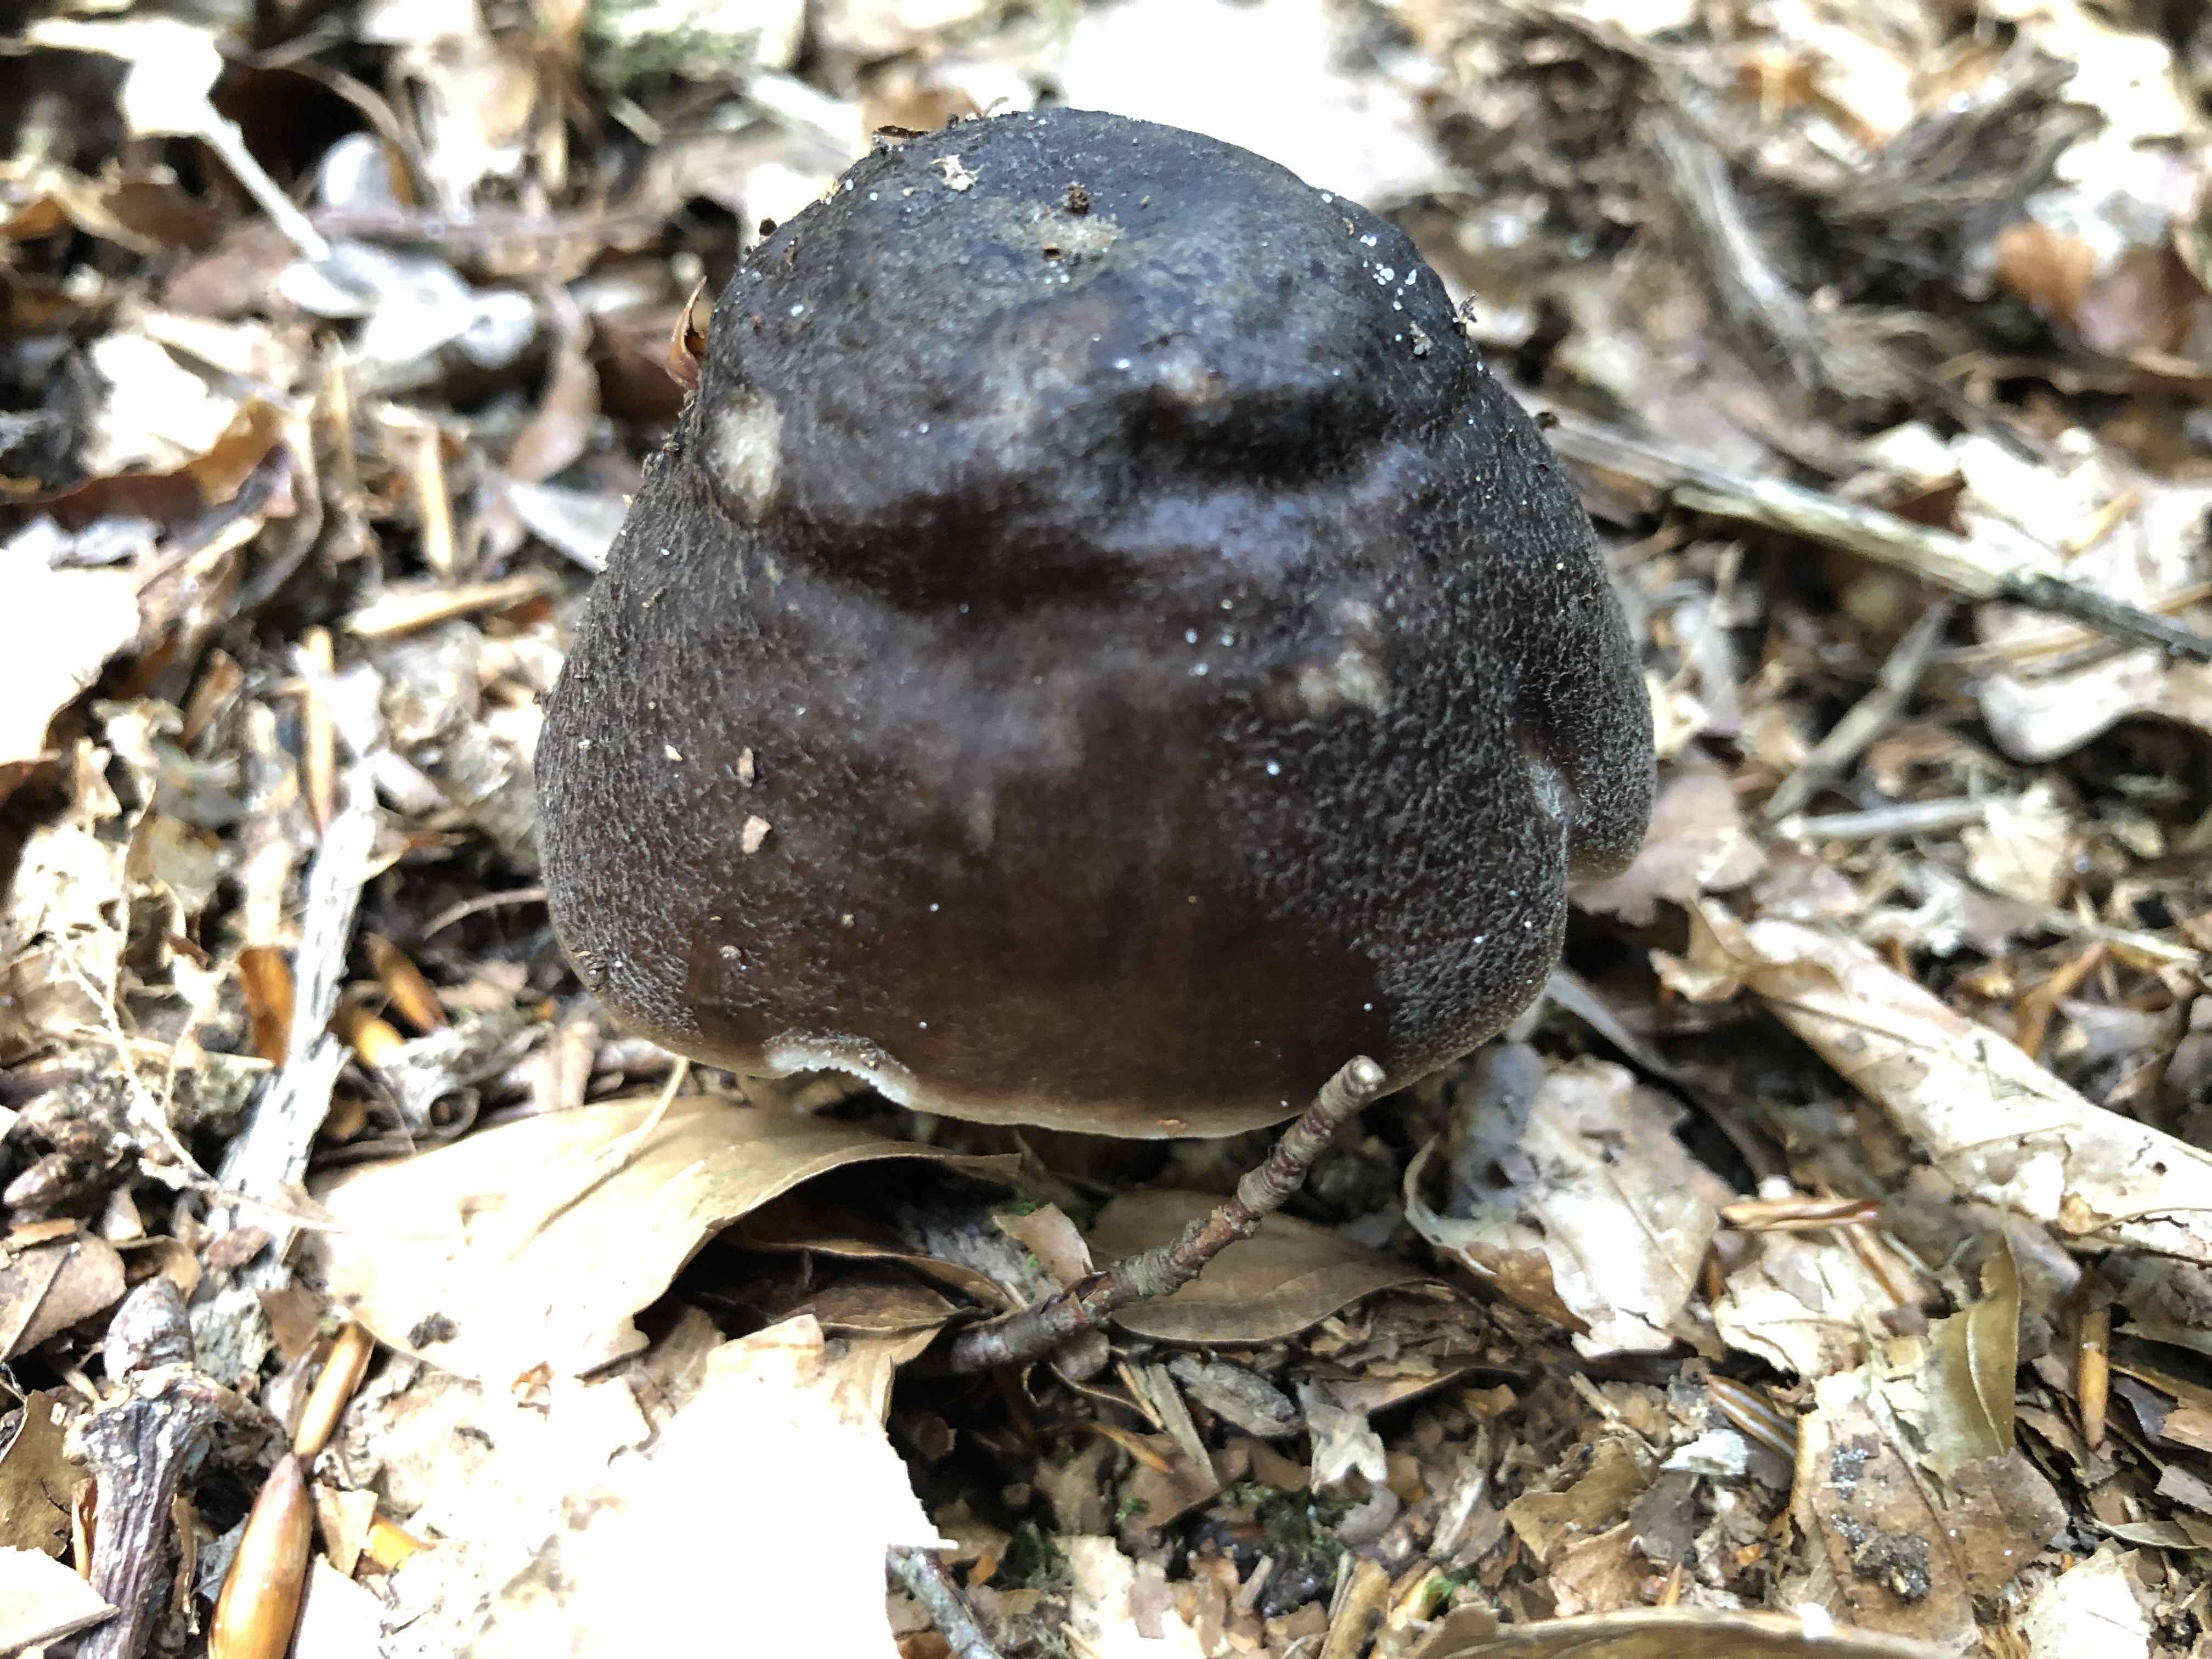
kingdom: Fungi
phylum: Basidiomycota
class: Agaricomycetes
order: Agaricales
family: Pluteaceae
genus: Pluteus
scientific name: Pluteus cervinus
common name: sodfarvet skærmhat
